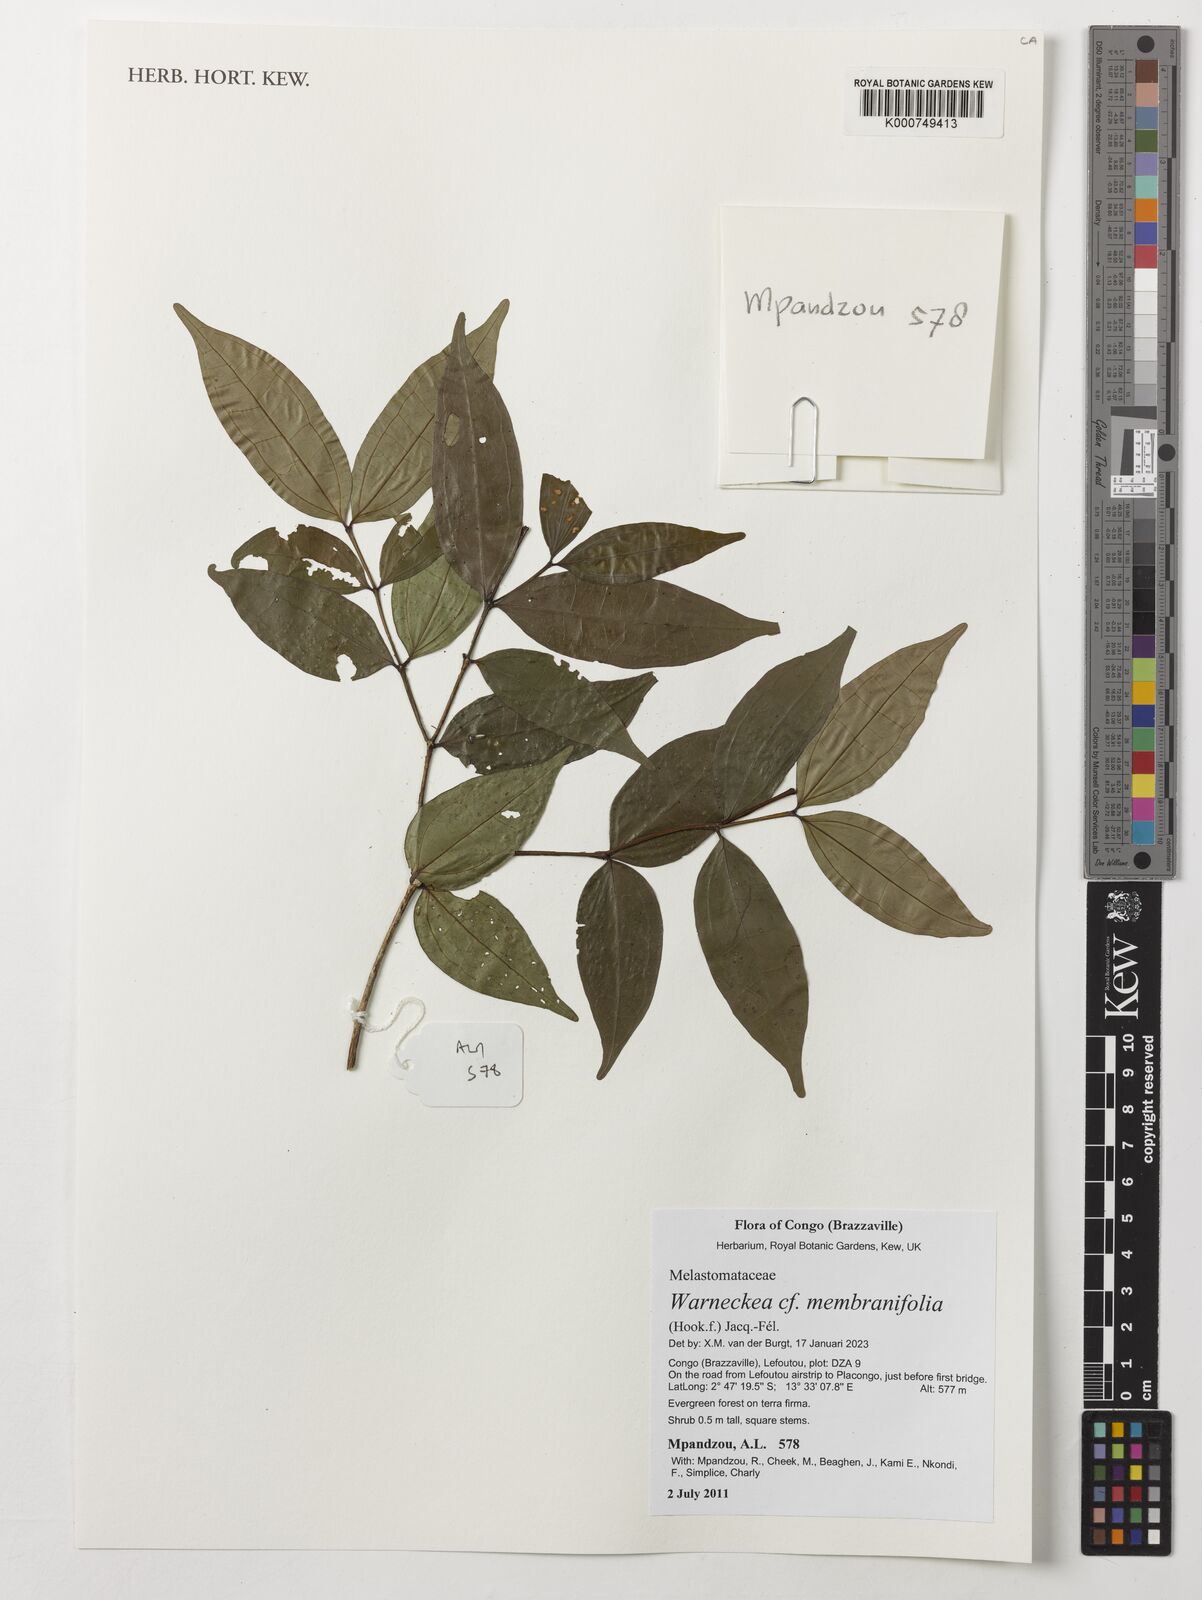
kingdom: Plantae
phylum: Tracheophyta
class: Magnoliopsida
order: Myrtales
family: Melastomataceae
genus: Warneckea
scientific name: Warneckea membranifolia
